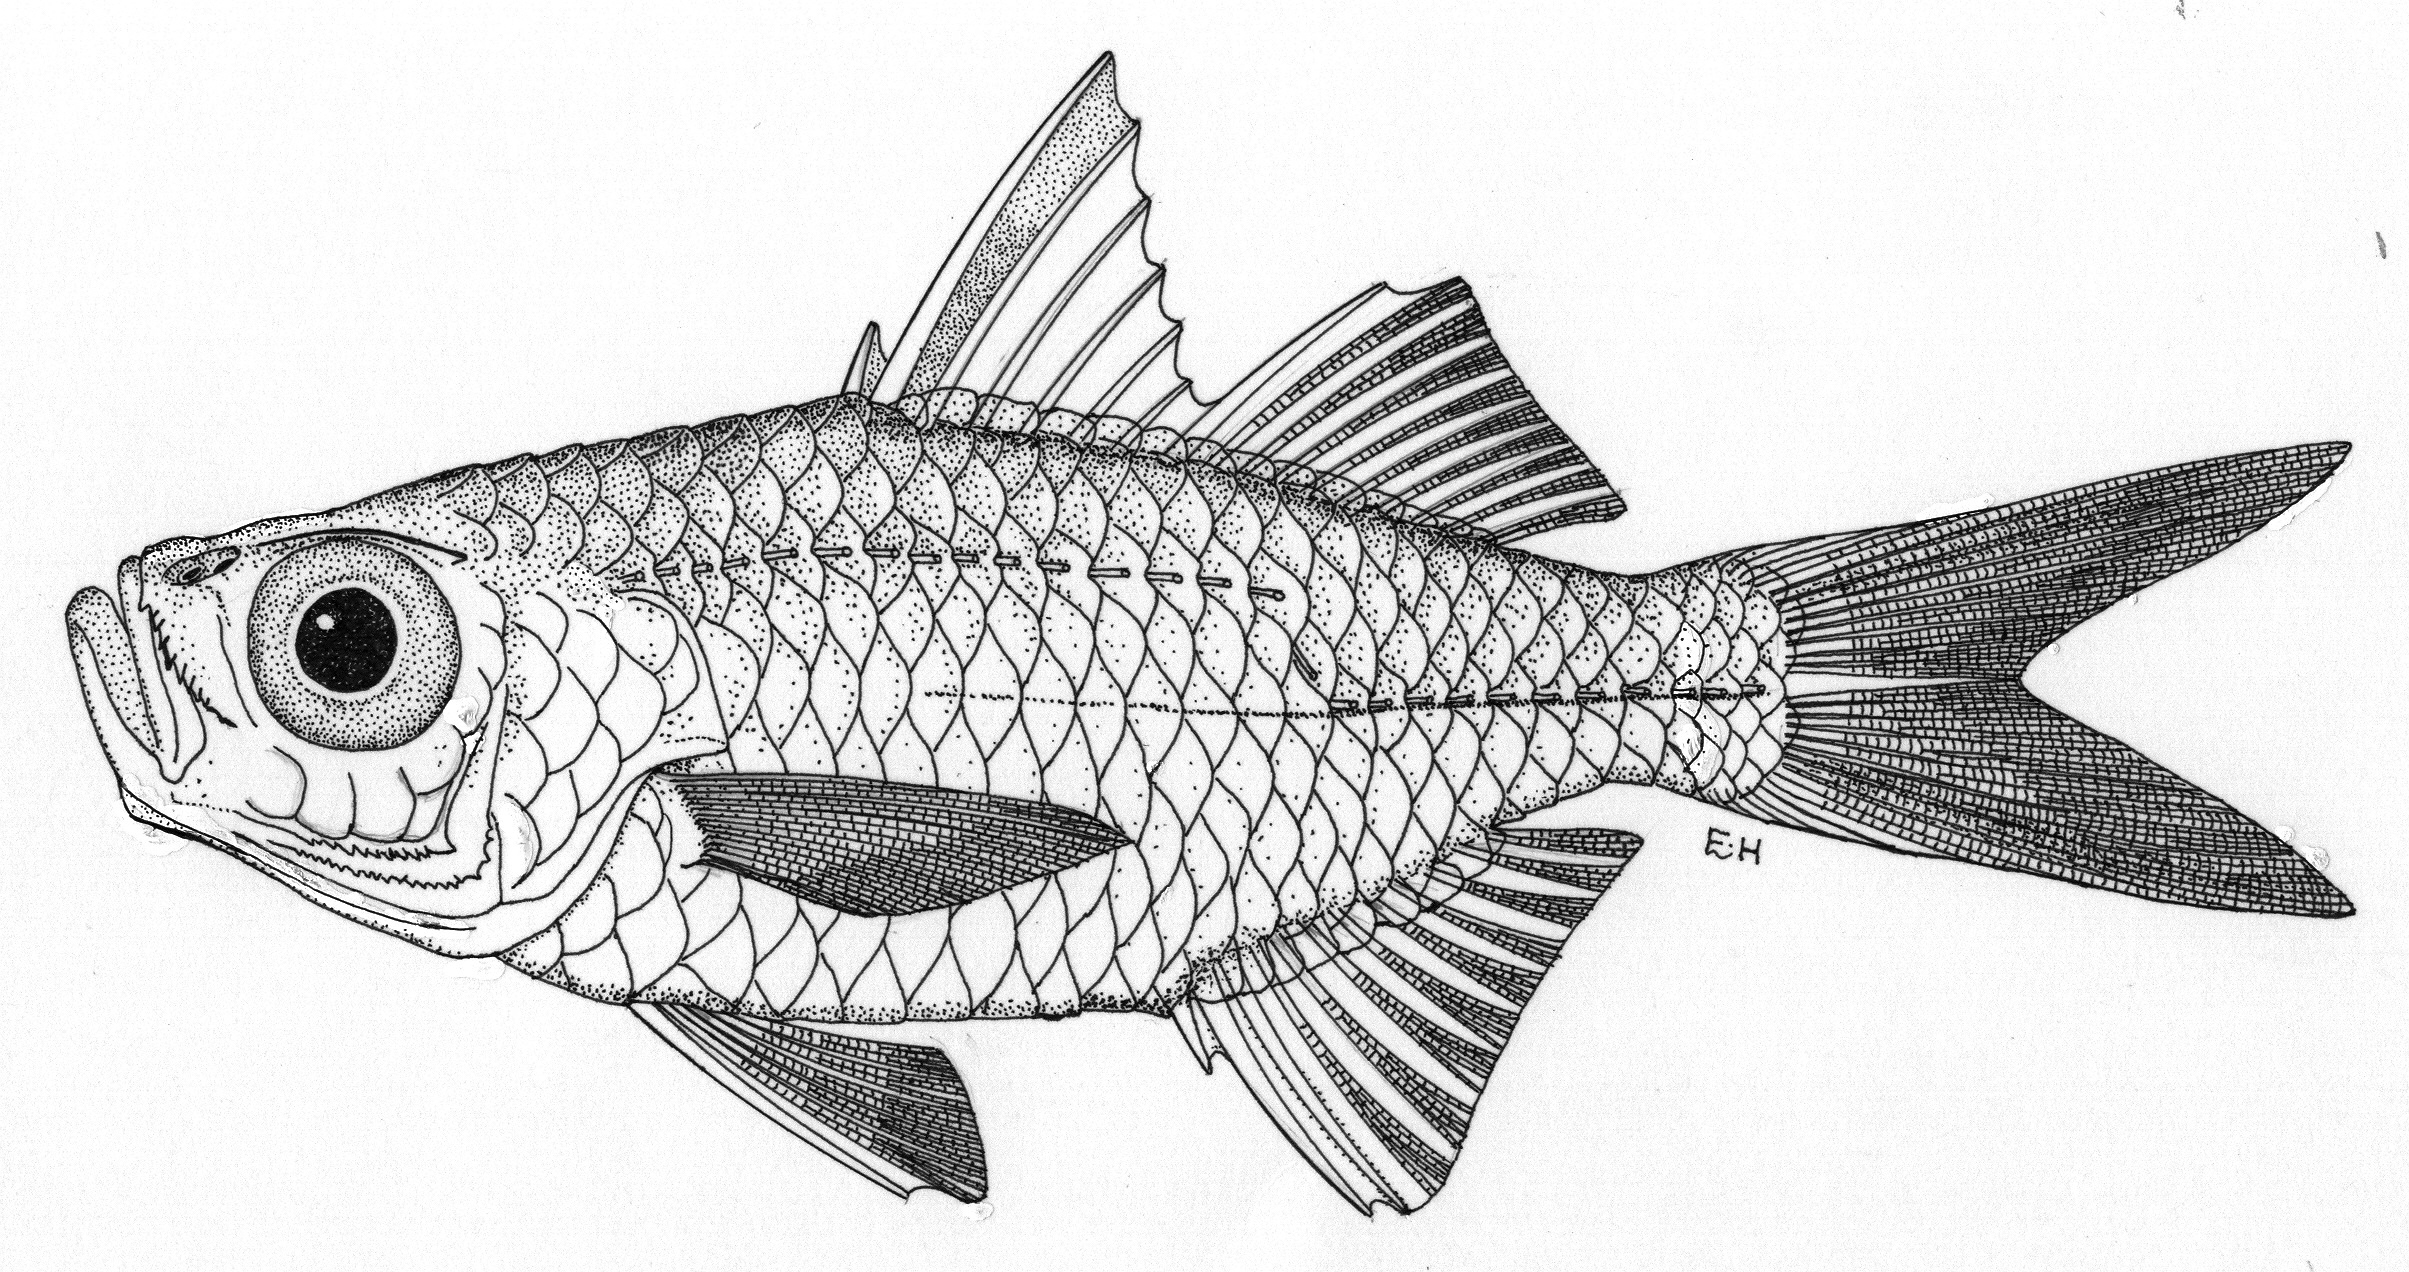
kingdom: Animalia
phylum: Chordata
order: Perciformes
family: Ambassidae
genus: Ambassis
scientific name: Ambassis urotaenia
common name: Banded-tail glassy perchlet
